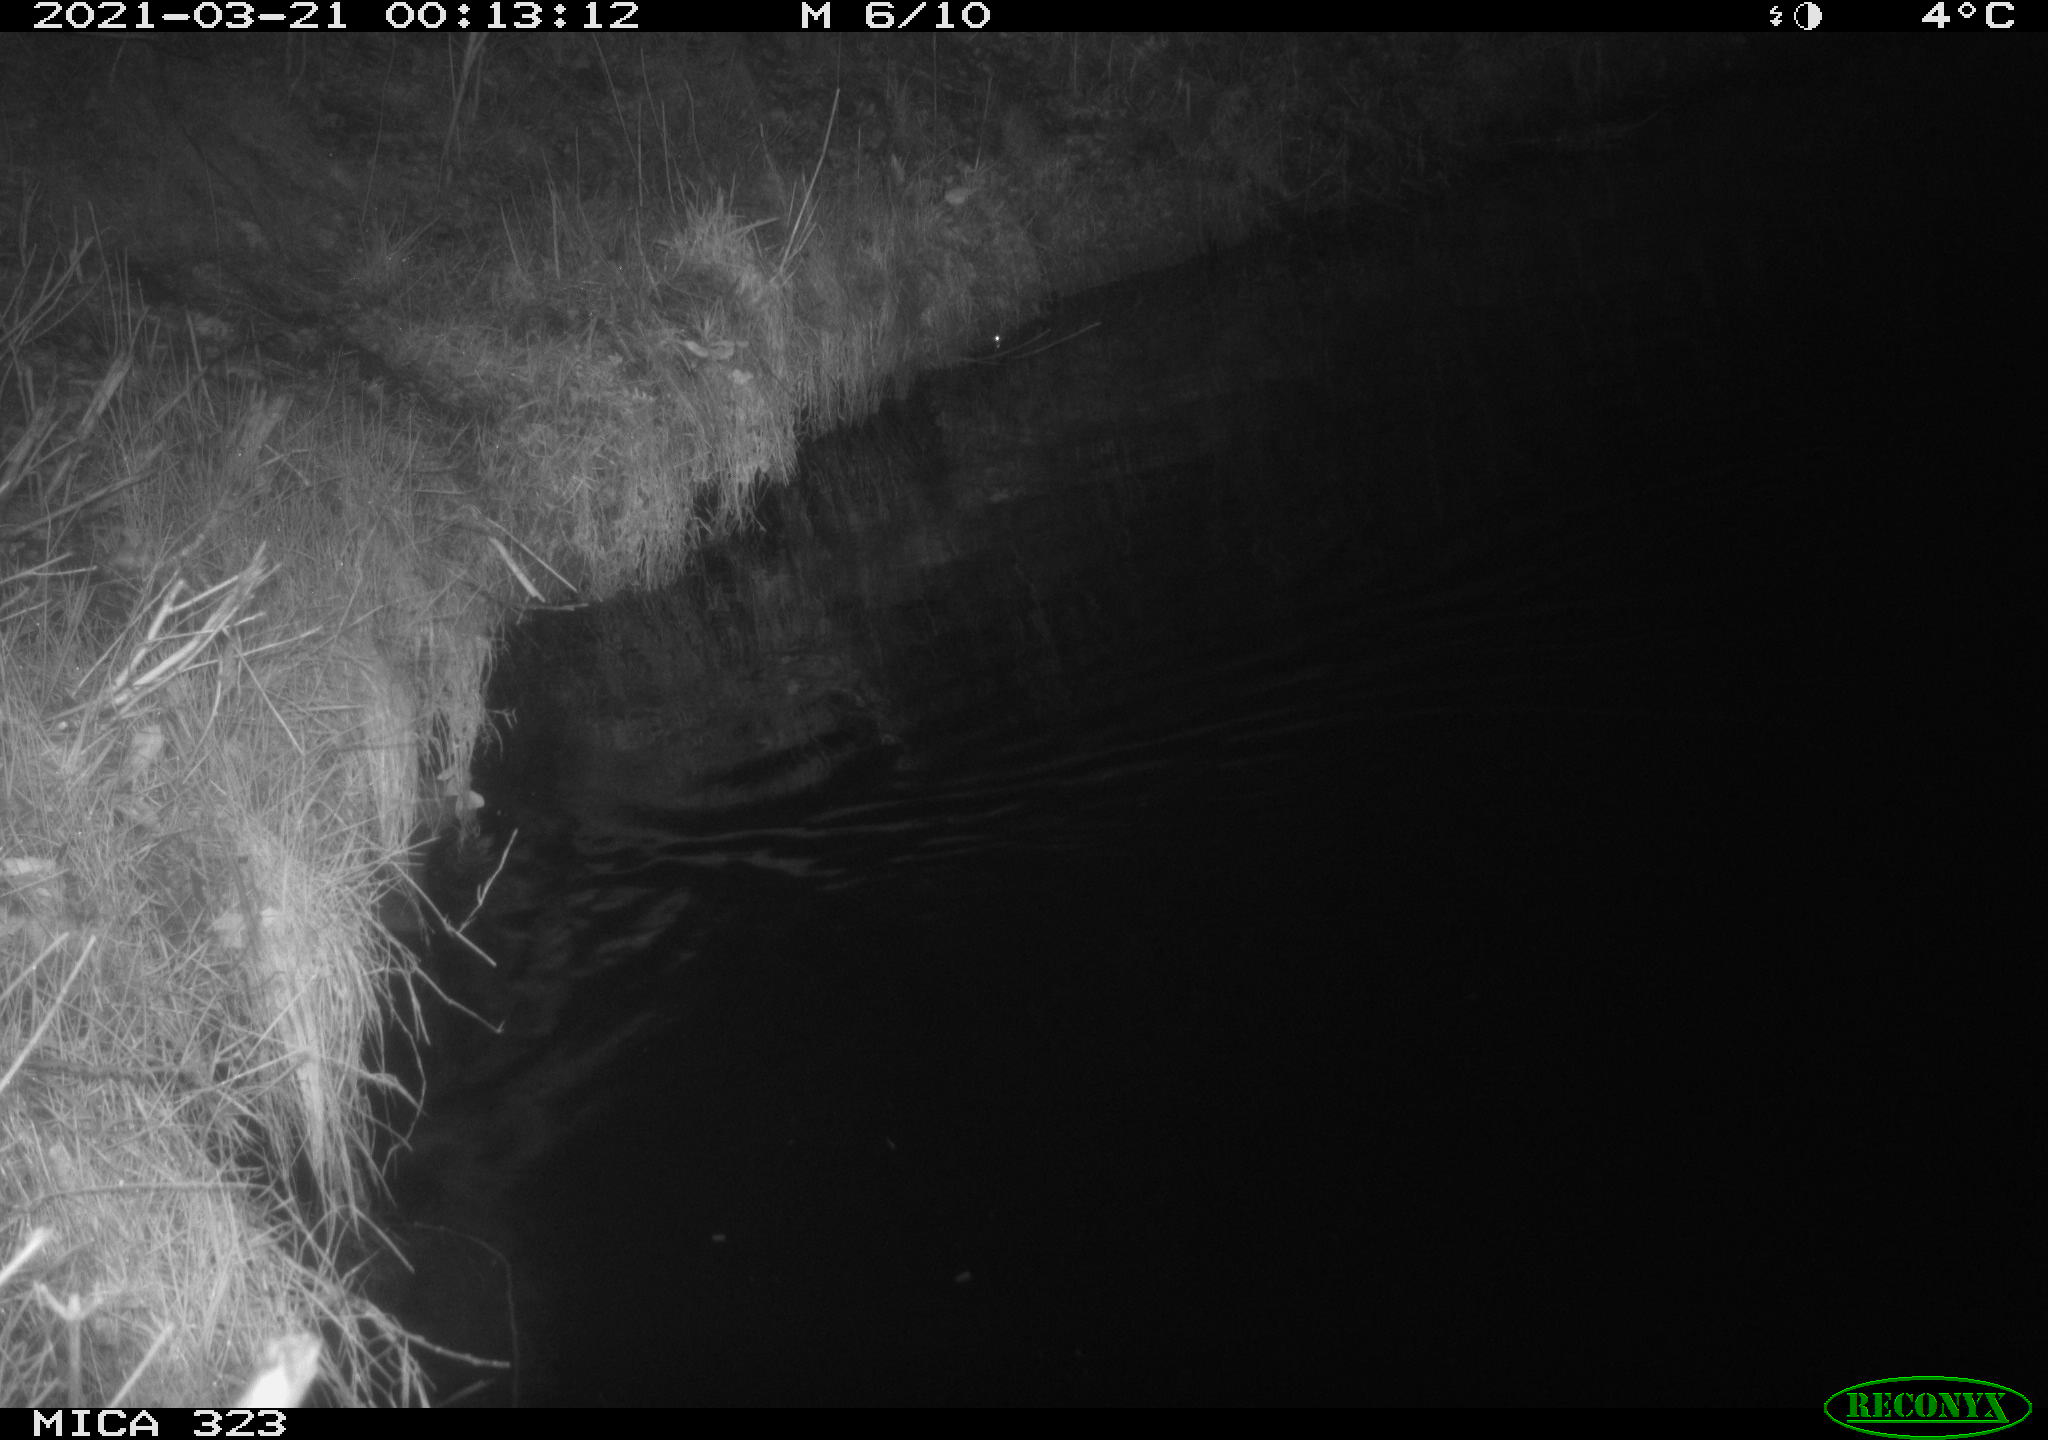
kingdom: Animalia
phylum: Chordata
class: Mammalia
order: Carnivora
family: Mustelidae
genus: Lutra
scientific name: Lutra lutra
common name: European otter
